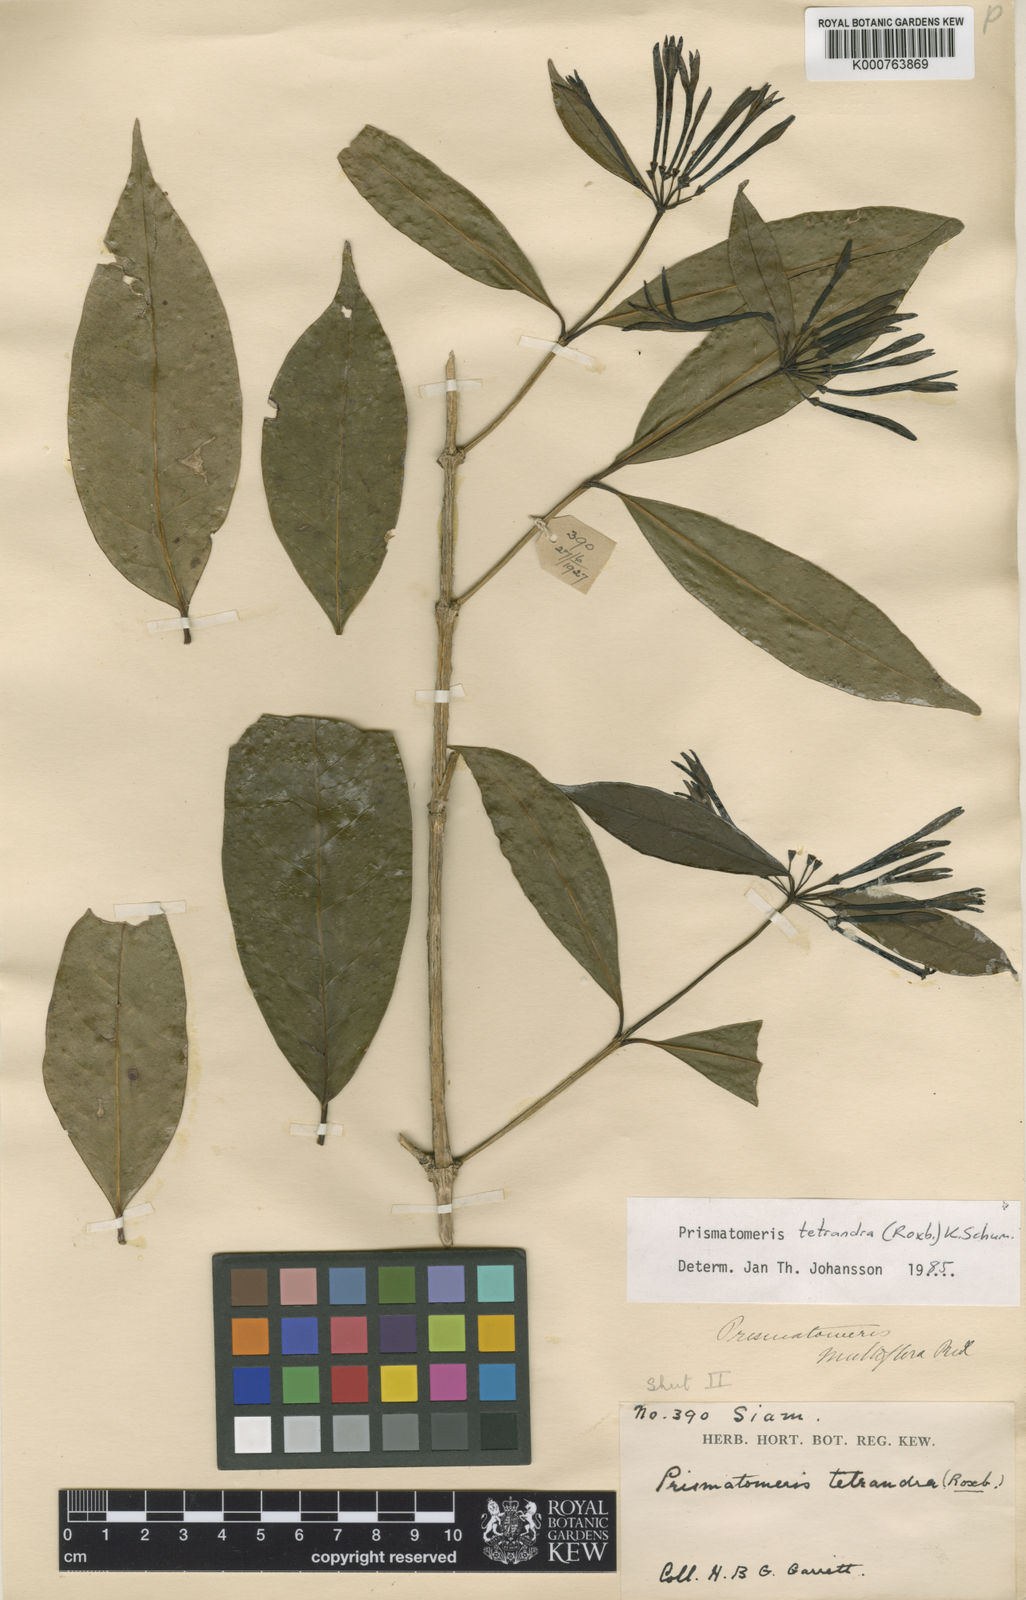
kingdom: Plantae
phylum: Tracheophyta
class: Magnoliopsida
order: Gentianales
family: Rubiaceae
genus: Morinda
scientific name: Morinda coreia
